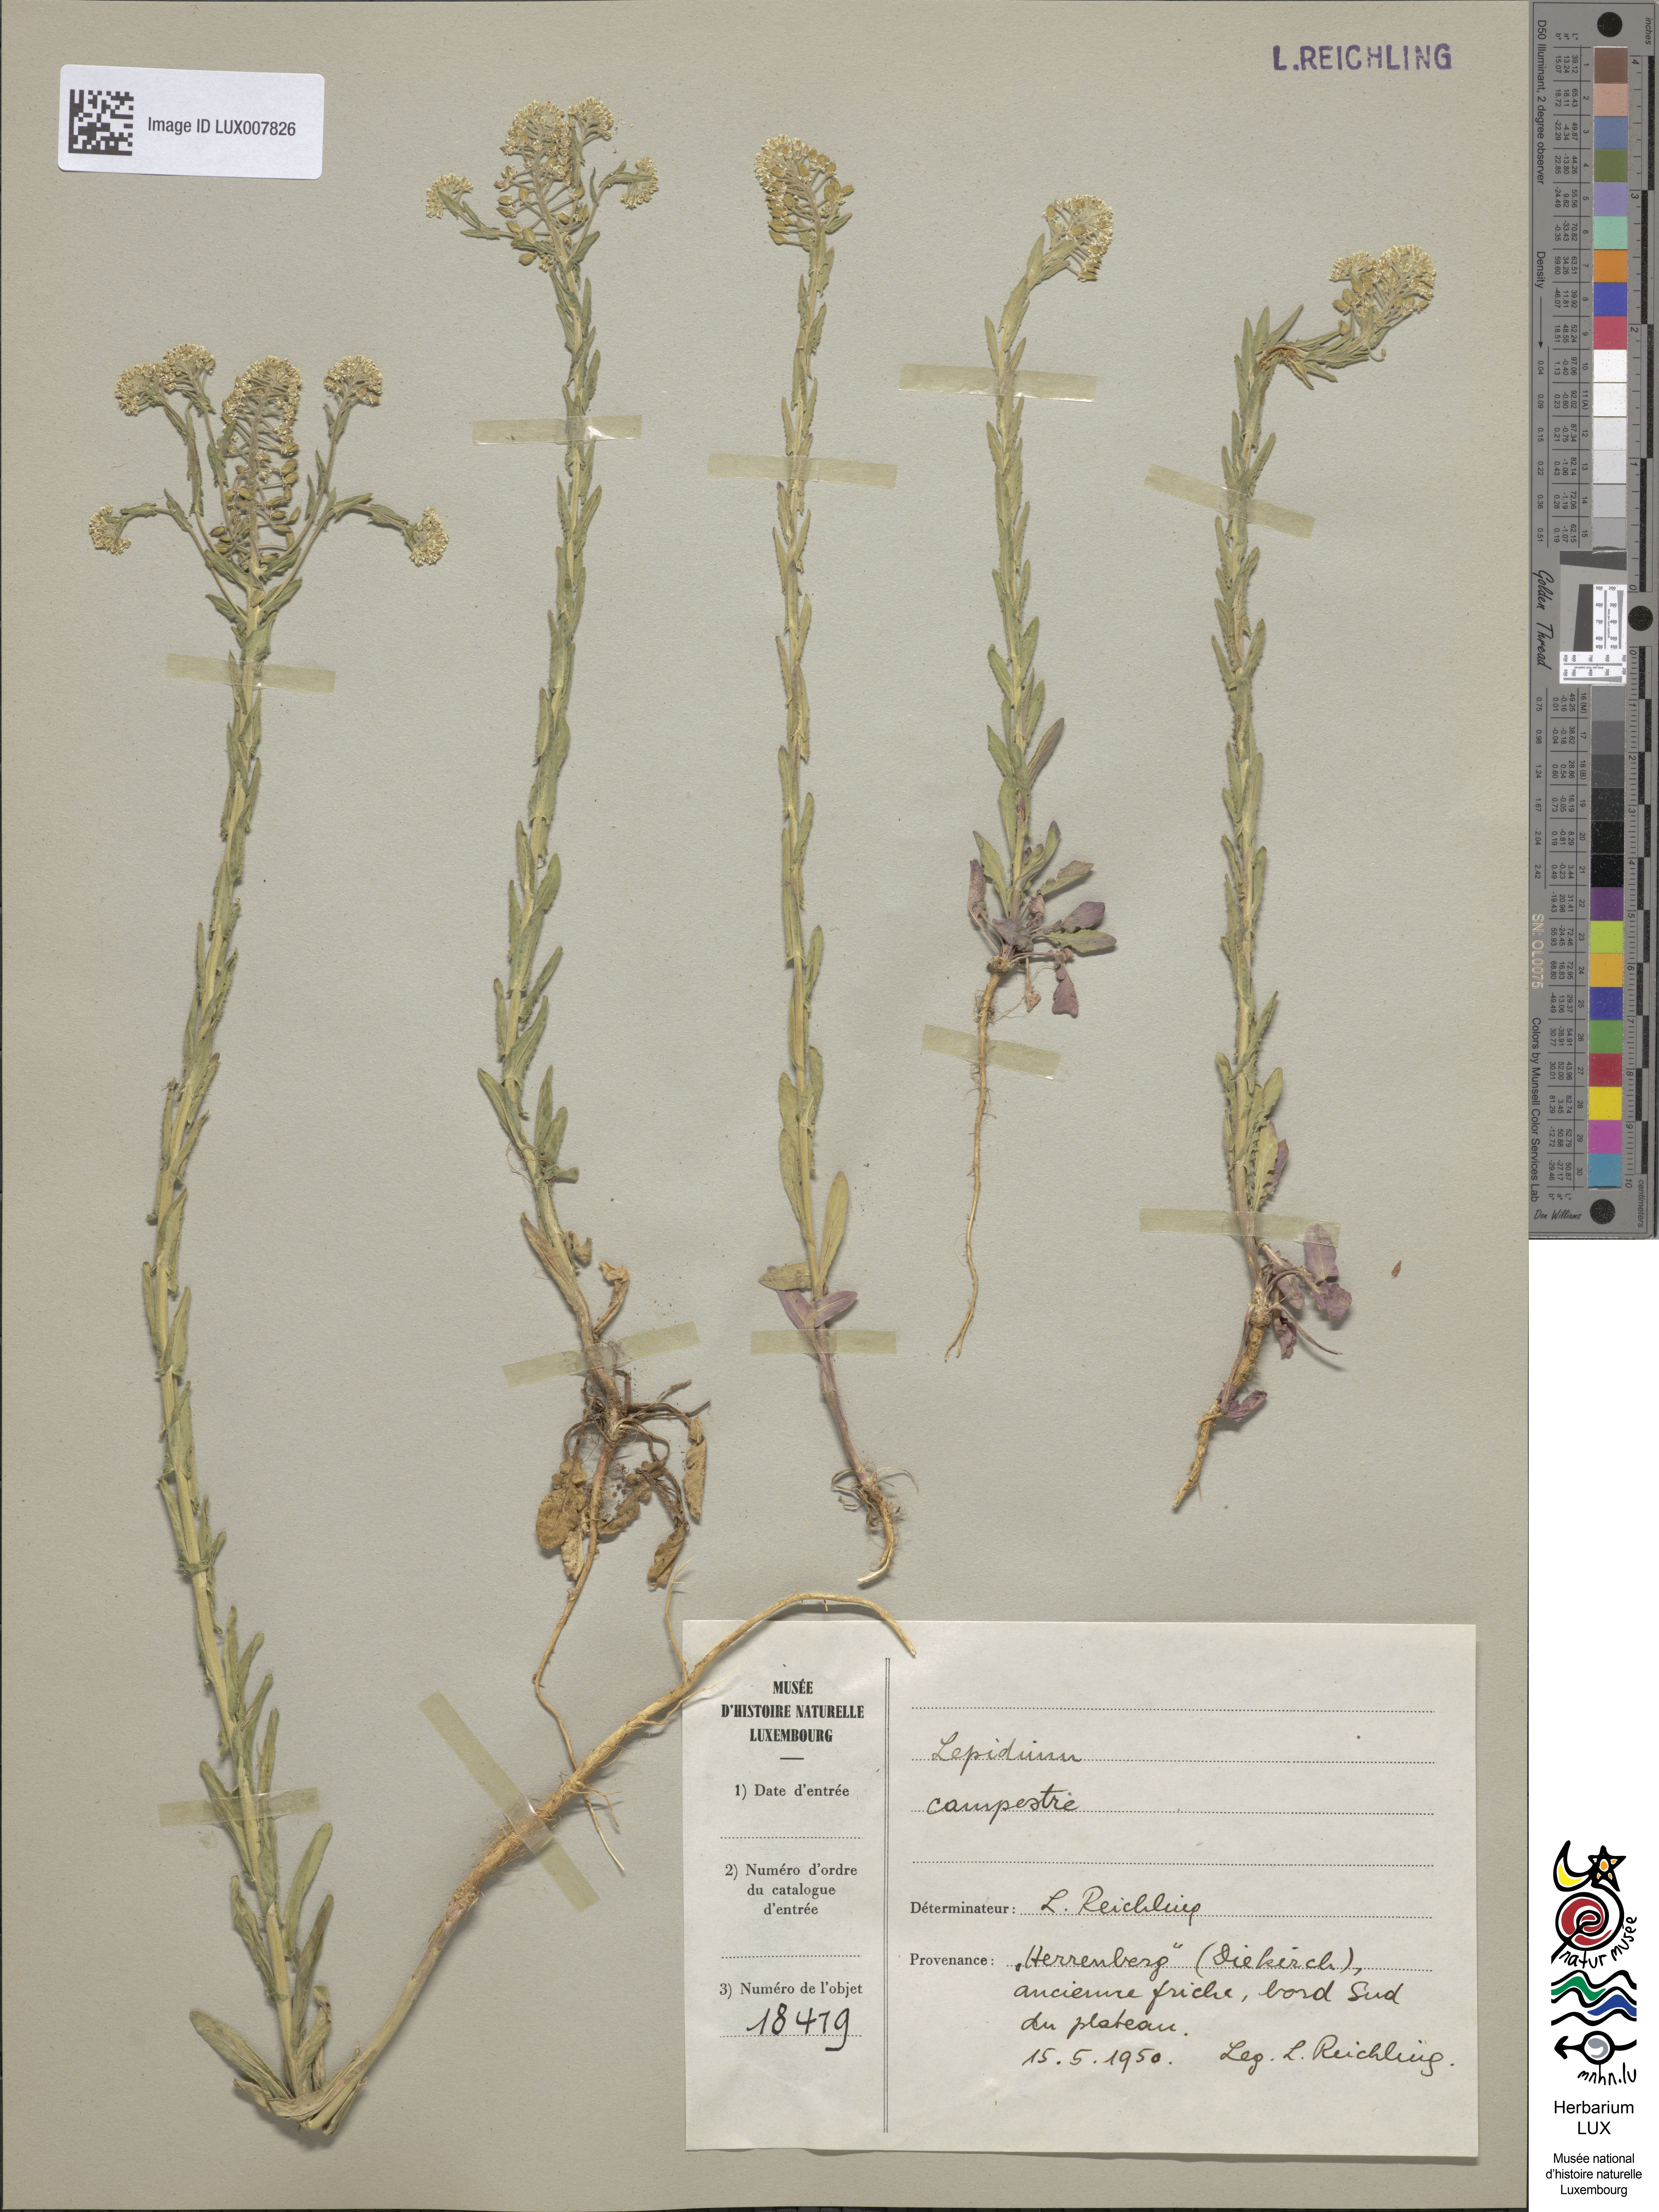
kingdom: Plantae
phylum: Tracheophyta
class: Magnoliopsida
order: Brassicales
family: Brassicaceae
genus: Lepidium
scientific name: Lepidium campestre
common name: Field pepperwort
